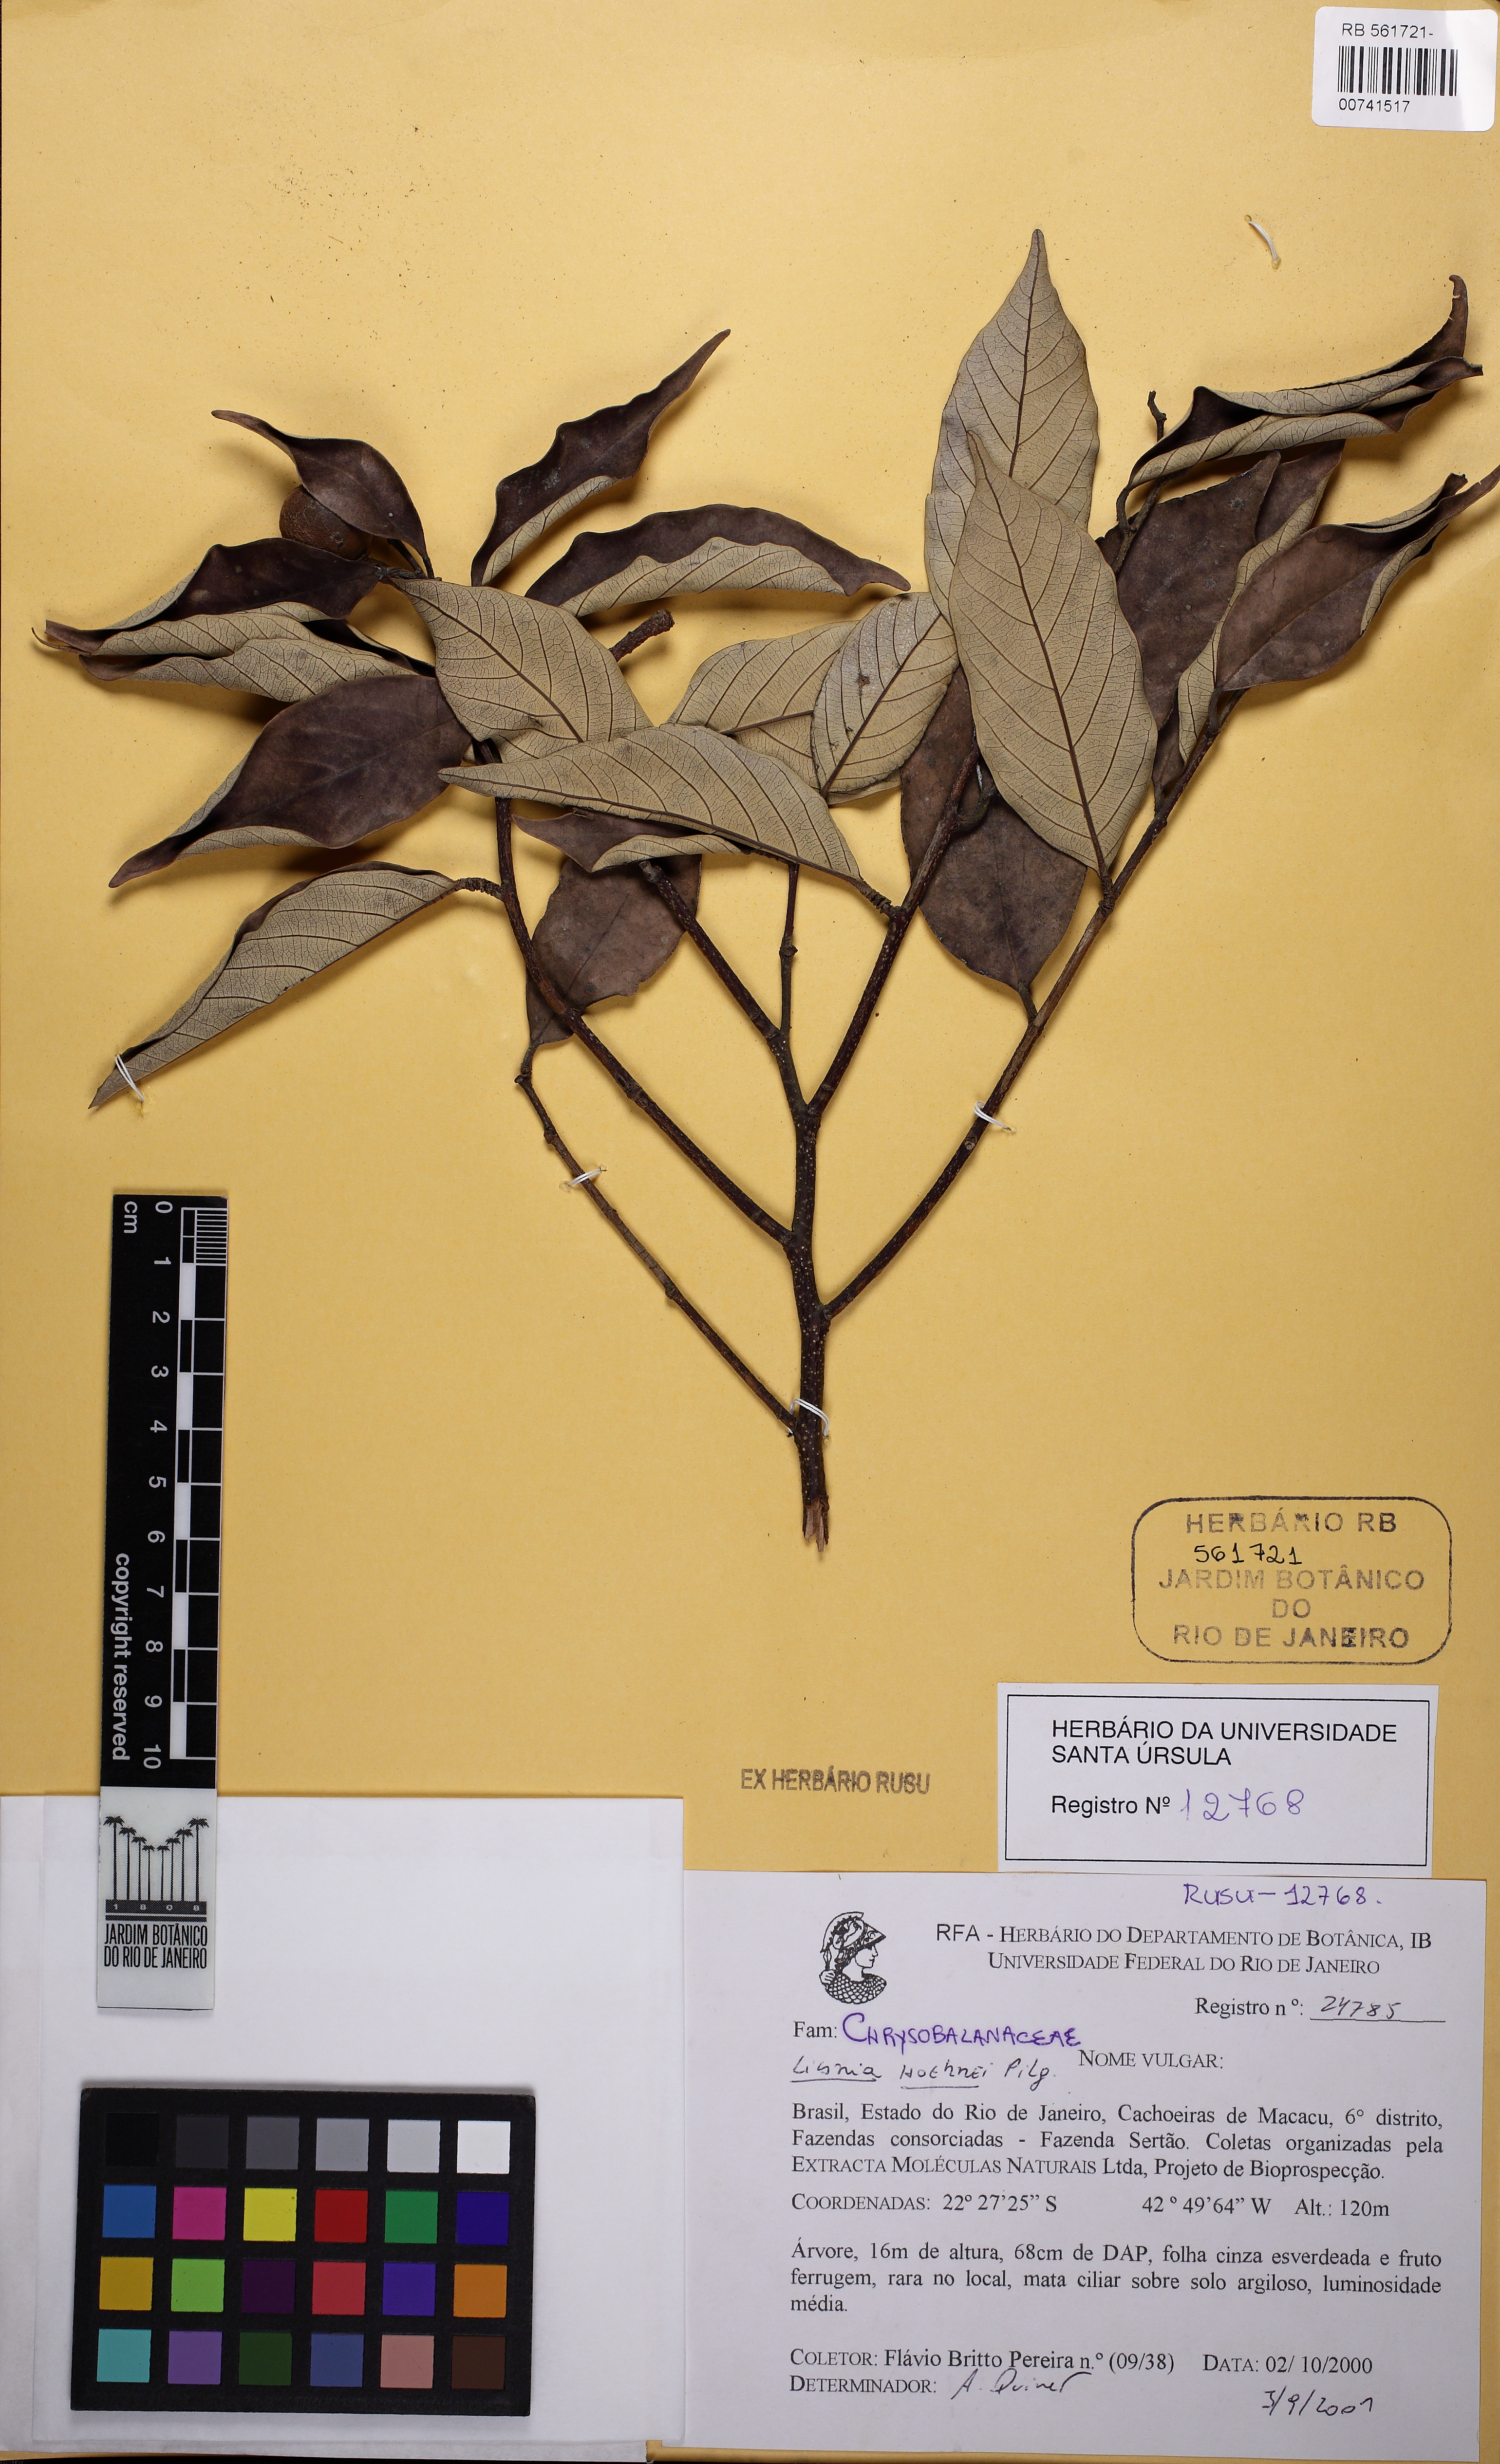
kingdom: Plantae
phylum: Tracheophyta
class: Magnoliopsida
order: Malpighiales
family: Chrysobalanaceae
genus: Licania
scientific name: Licania hoehnei
